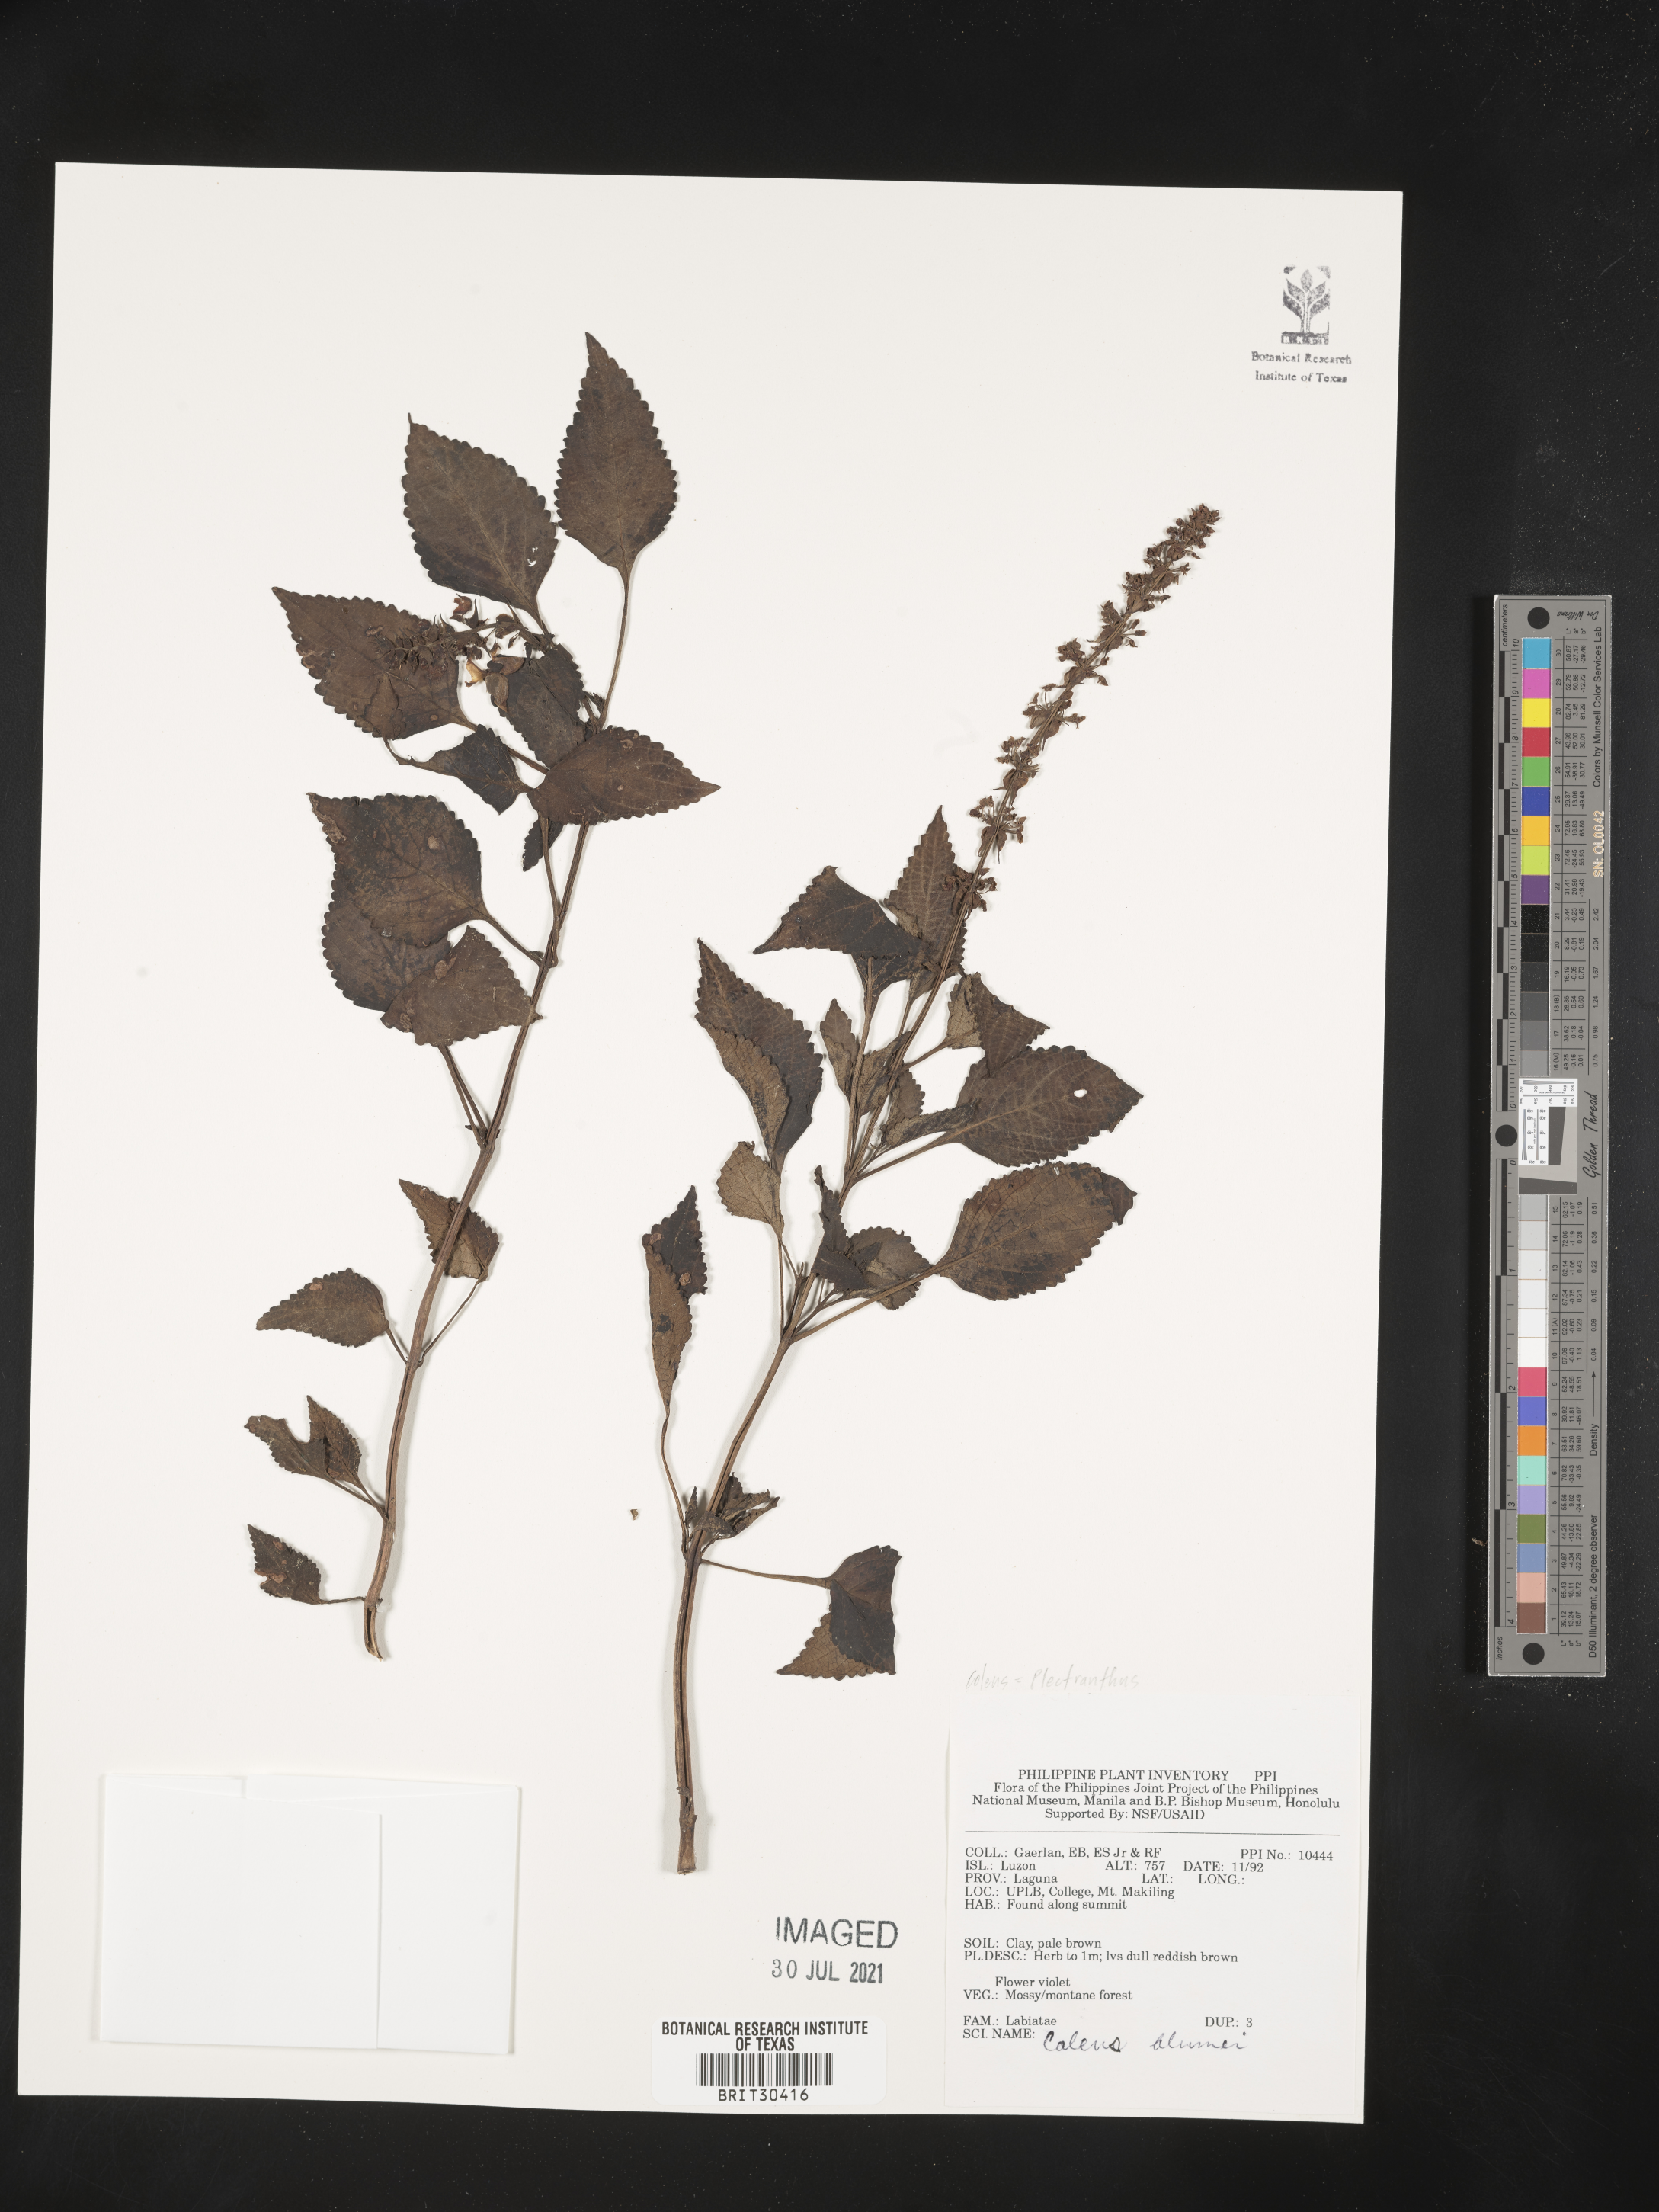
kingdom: Plantae
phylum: Tracheophyta
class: Magnoliopsida
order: Lamiales
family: Lamiaceae
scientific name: Lamiaceae
